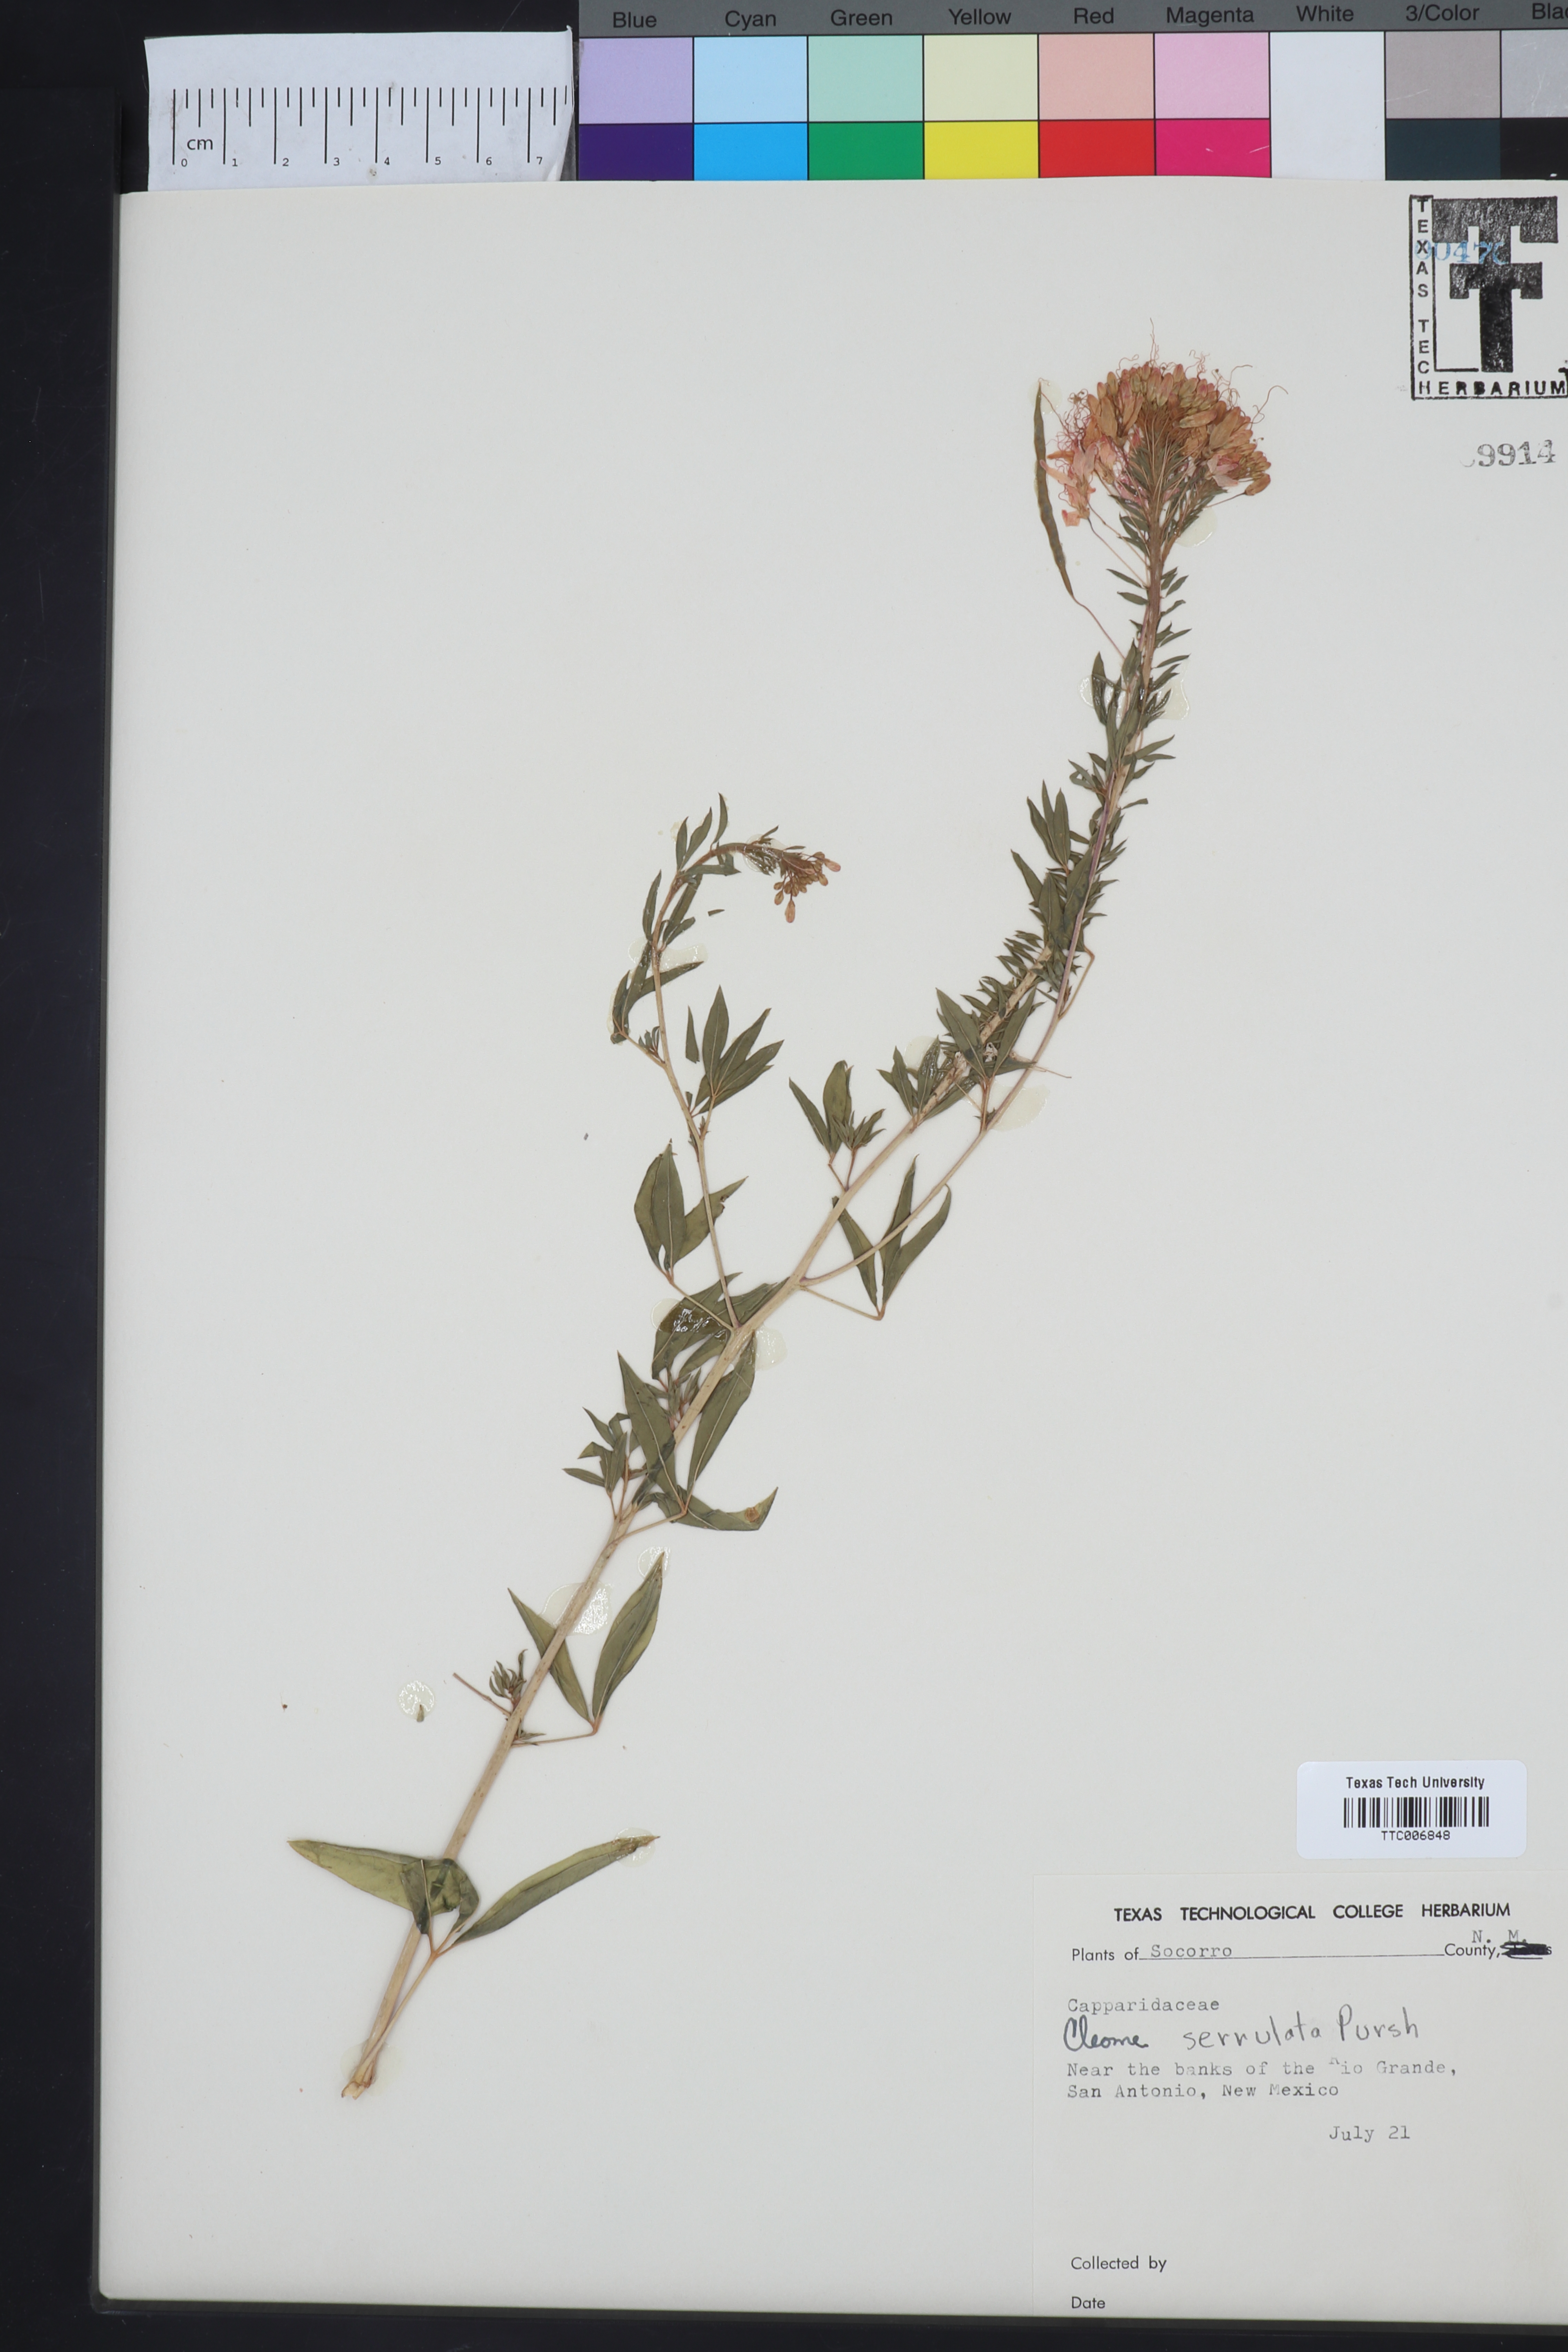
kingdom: Plantae
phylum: Tracheophyta
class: Magnoliopsida
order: Brassicales
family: Cleomaceae
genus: Cleomella
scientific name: Cleomella serrulata
